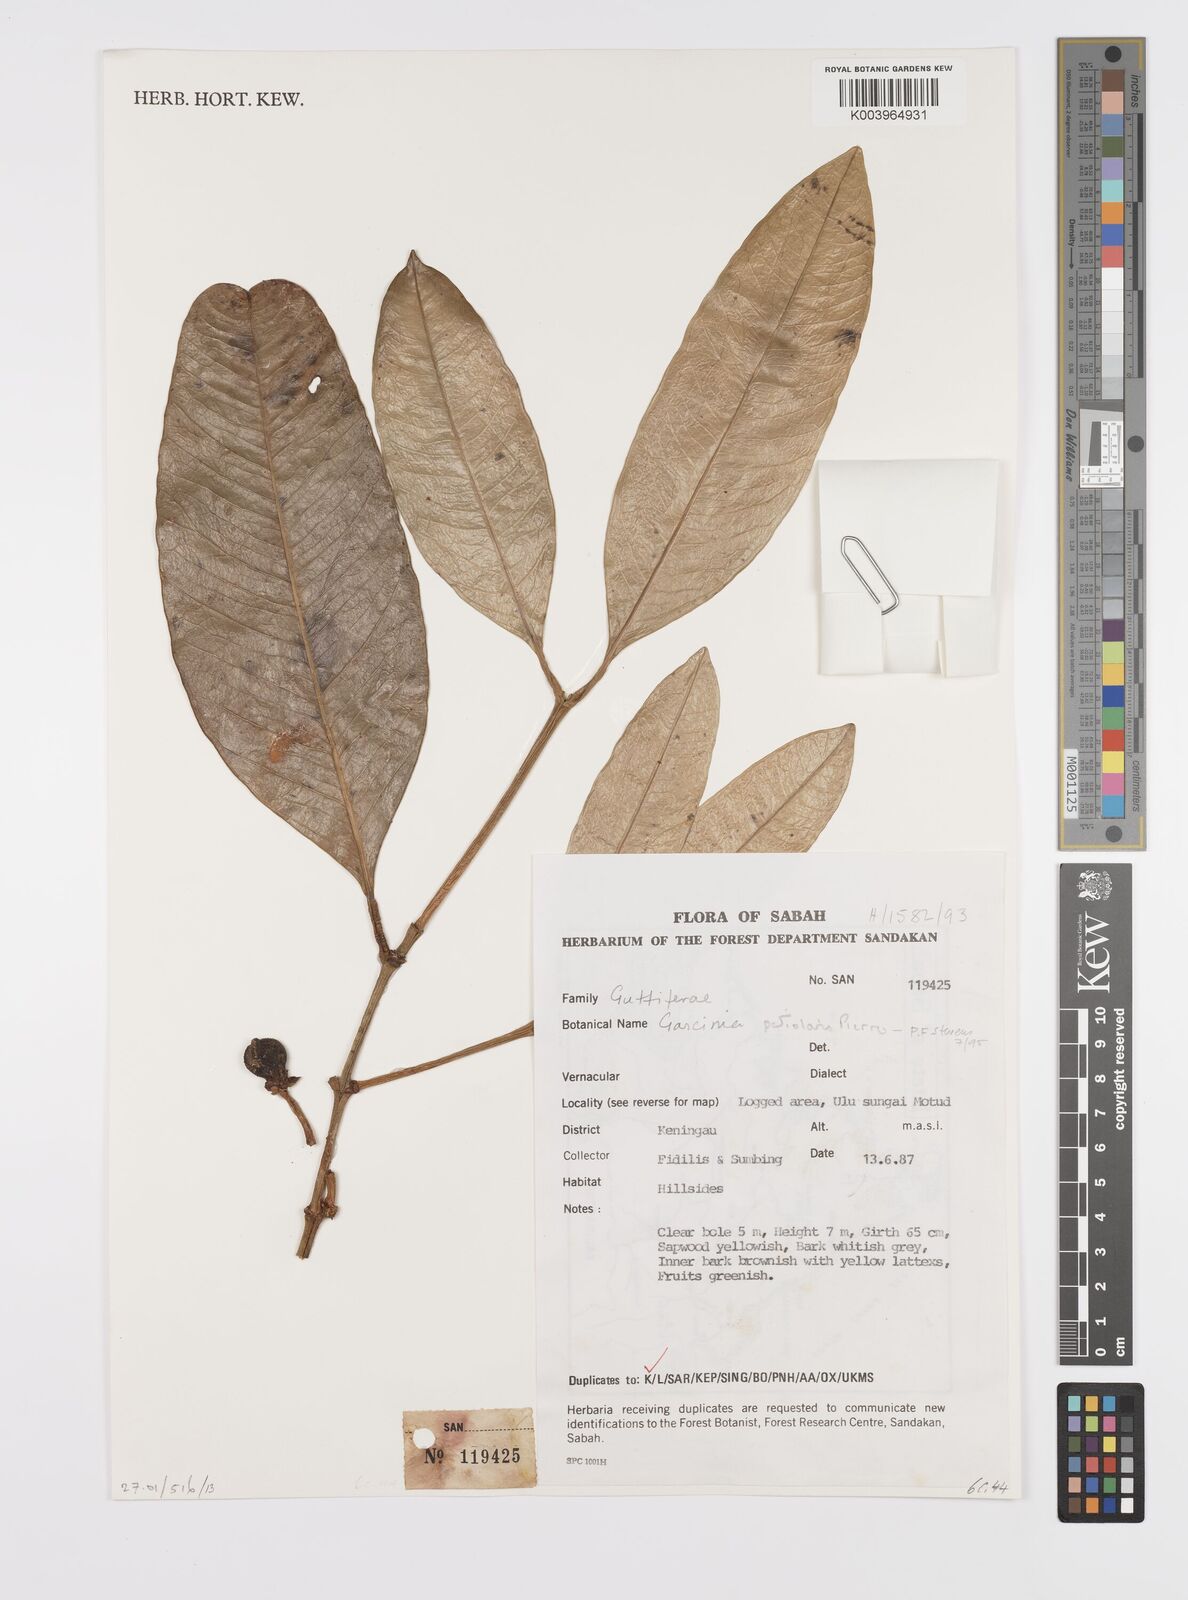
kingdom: Plantae
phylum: Tracheophyta
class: Magnoliopsida
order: Malpighiales
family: Clusiaceae
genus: Garcinia
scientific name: Garcinia petiolaris
